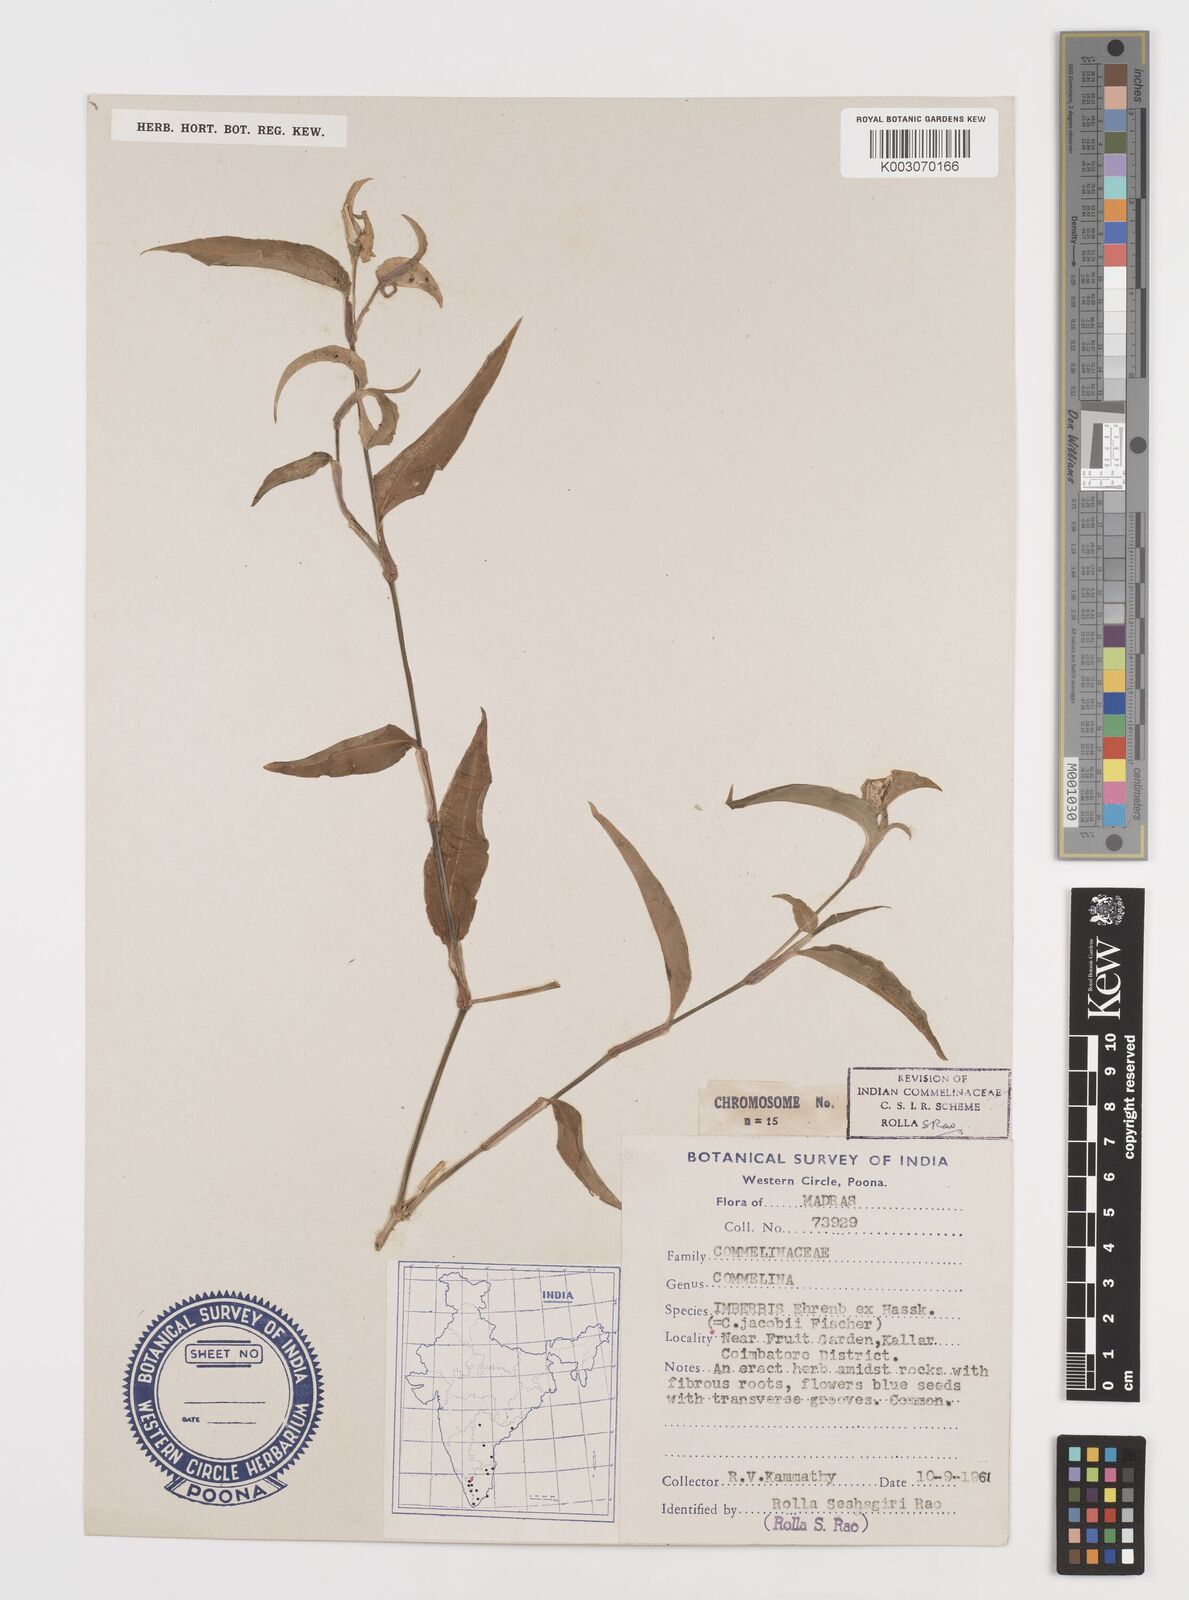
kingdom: Plantae
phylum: Tracheophyta
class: Liliopsida
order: Commelinales
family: Commelinaceae
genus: Commelina
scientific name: Commelina petersii
